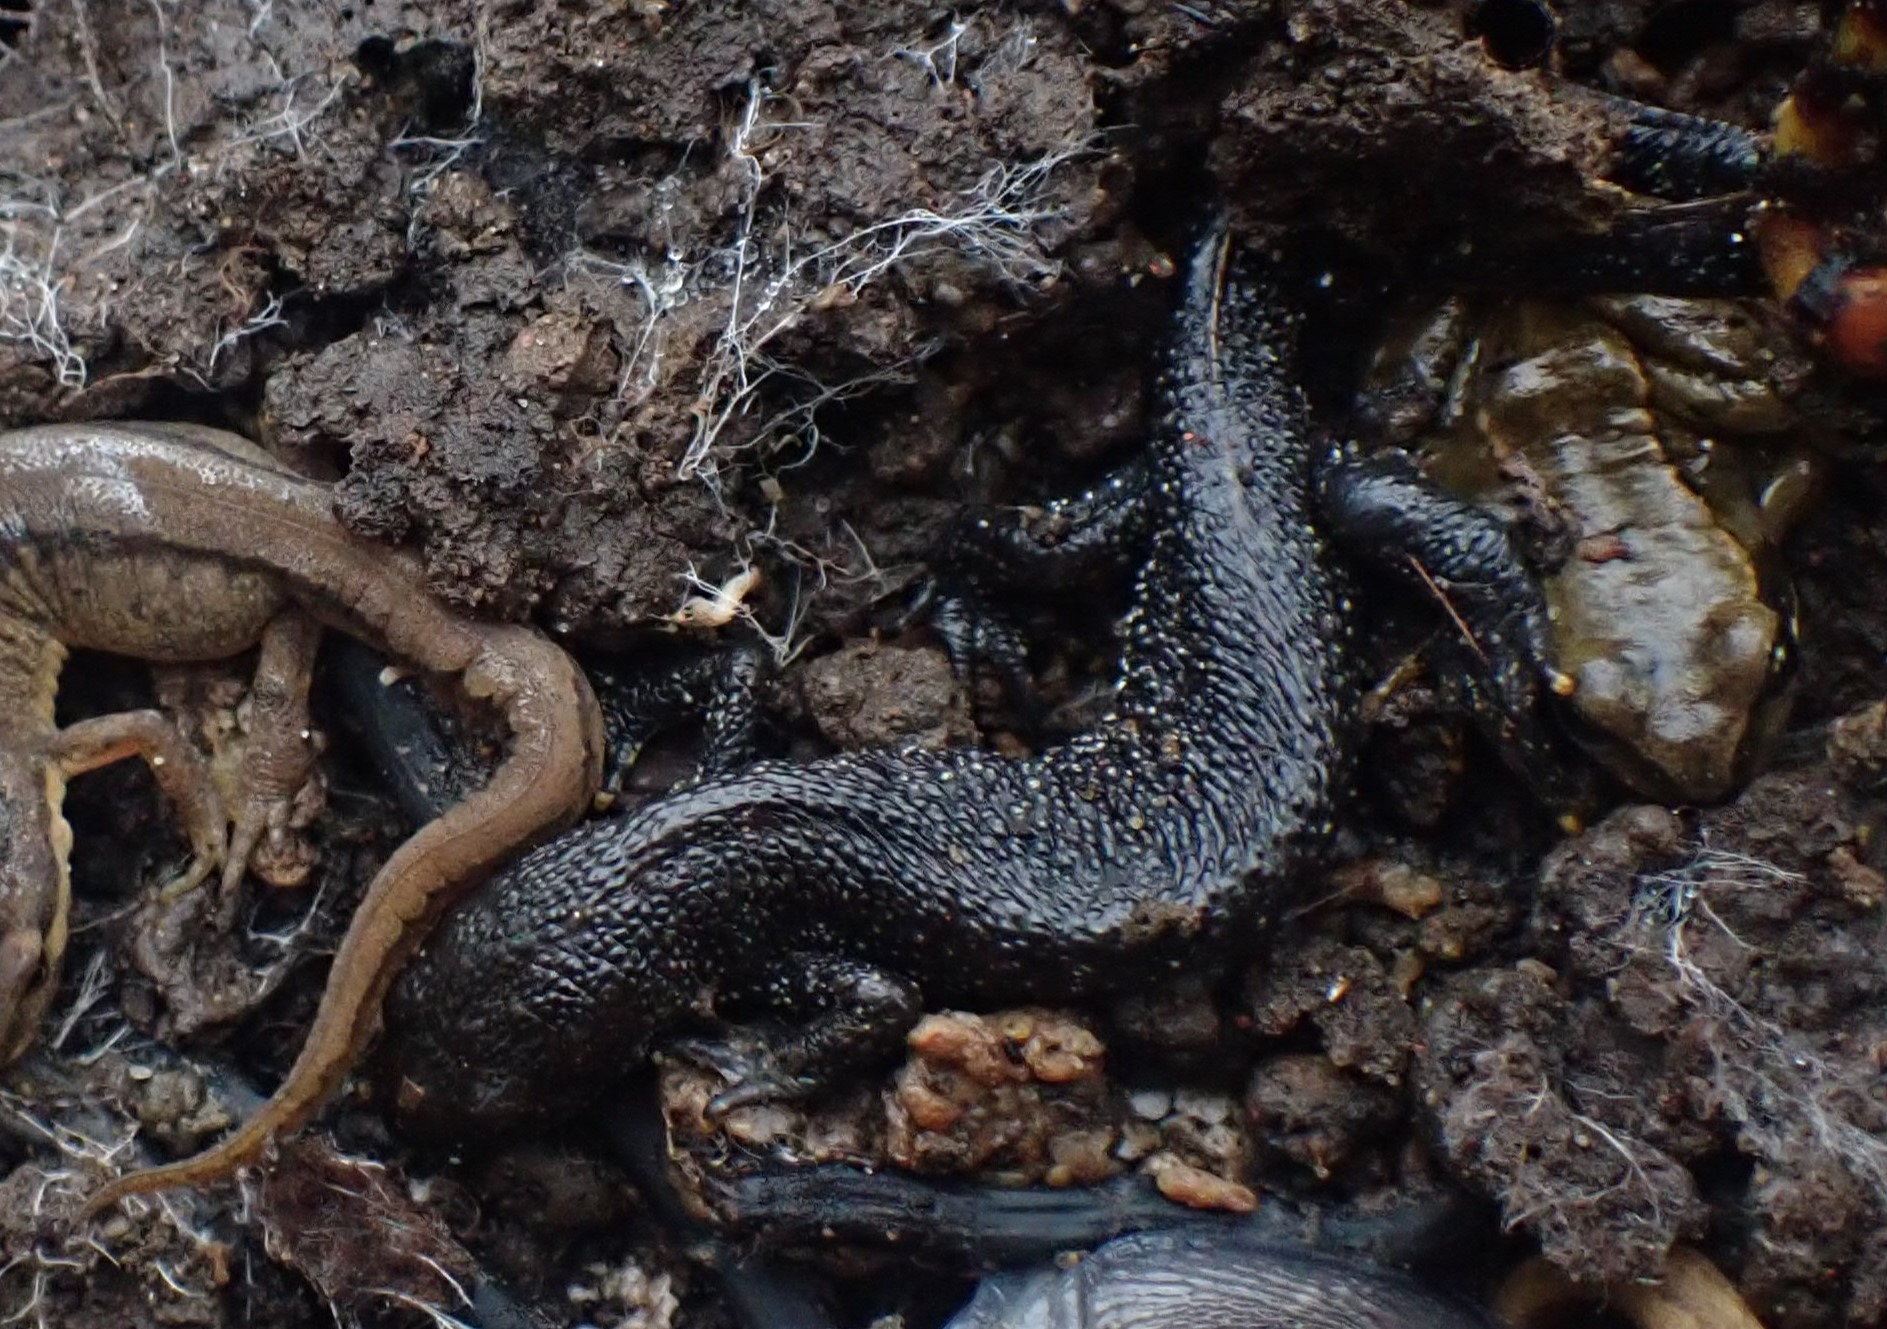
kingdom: Animalia
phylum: Chordata
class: Amphibia
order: Caudata
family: Salamandridae
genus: Triturus
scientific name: Triturus cristatus
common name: Stor vandsalamander
